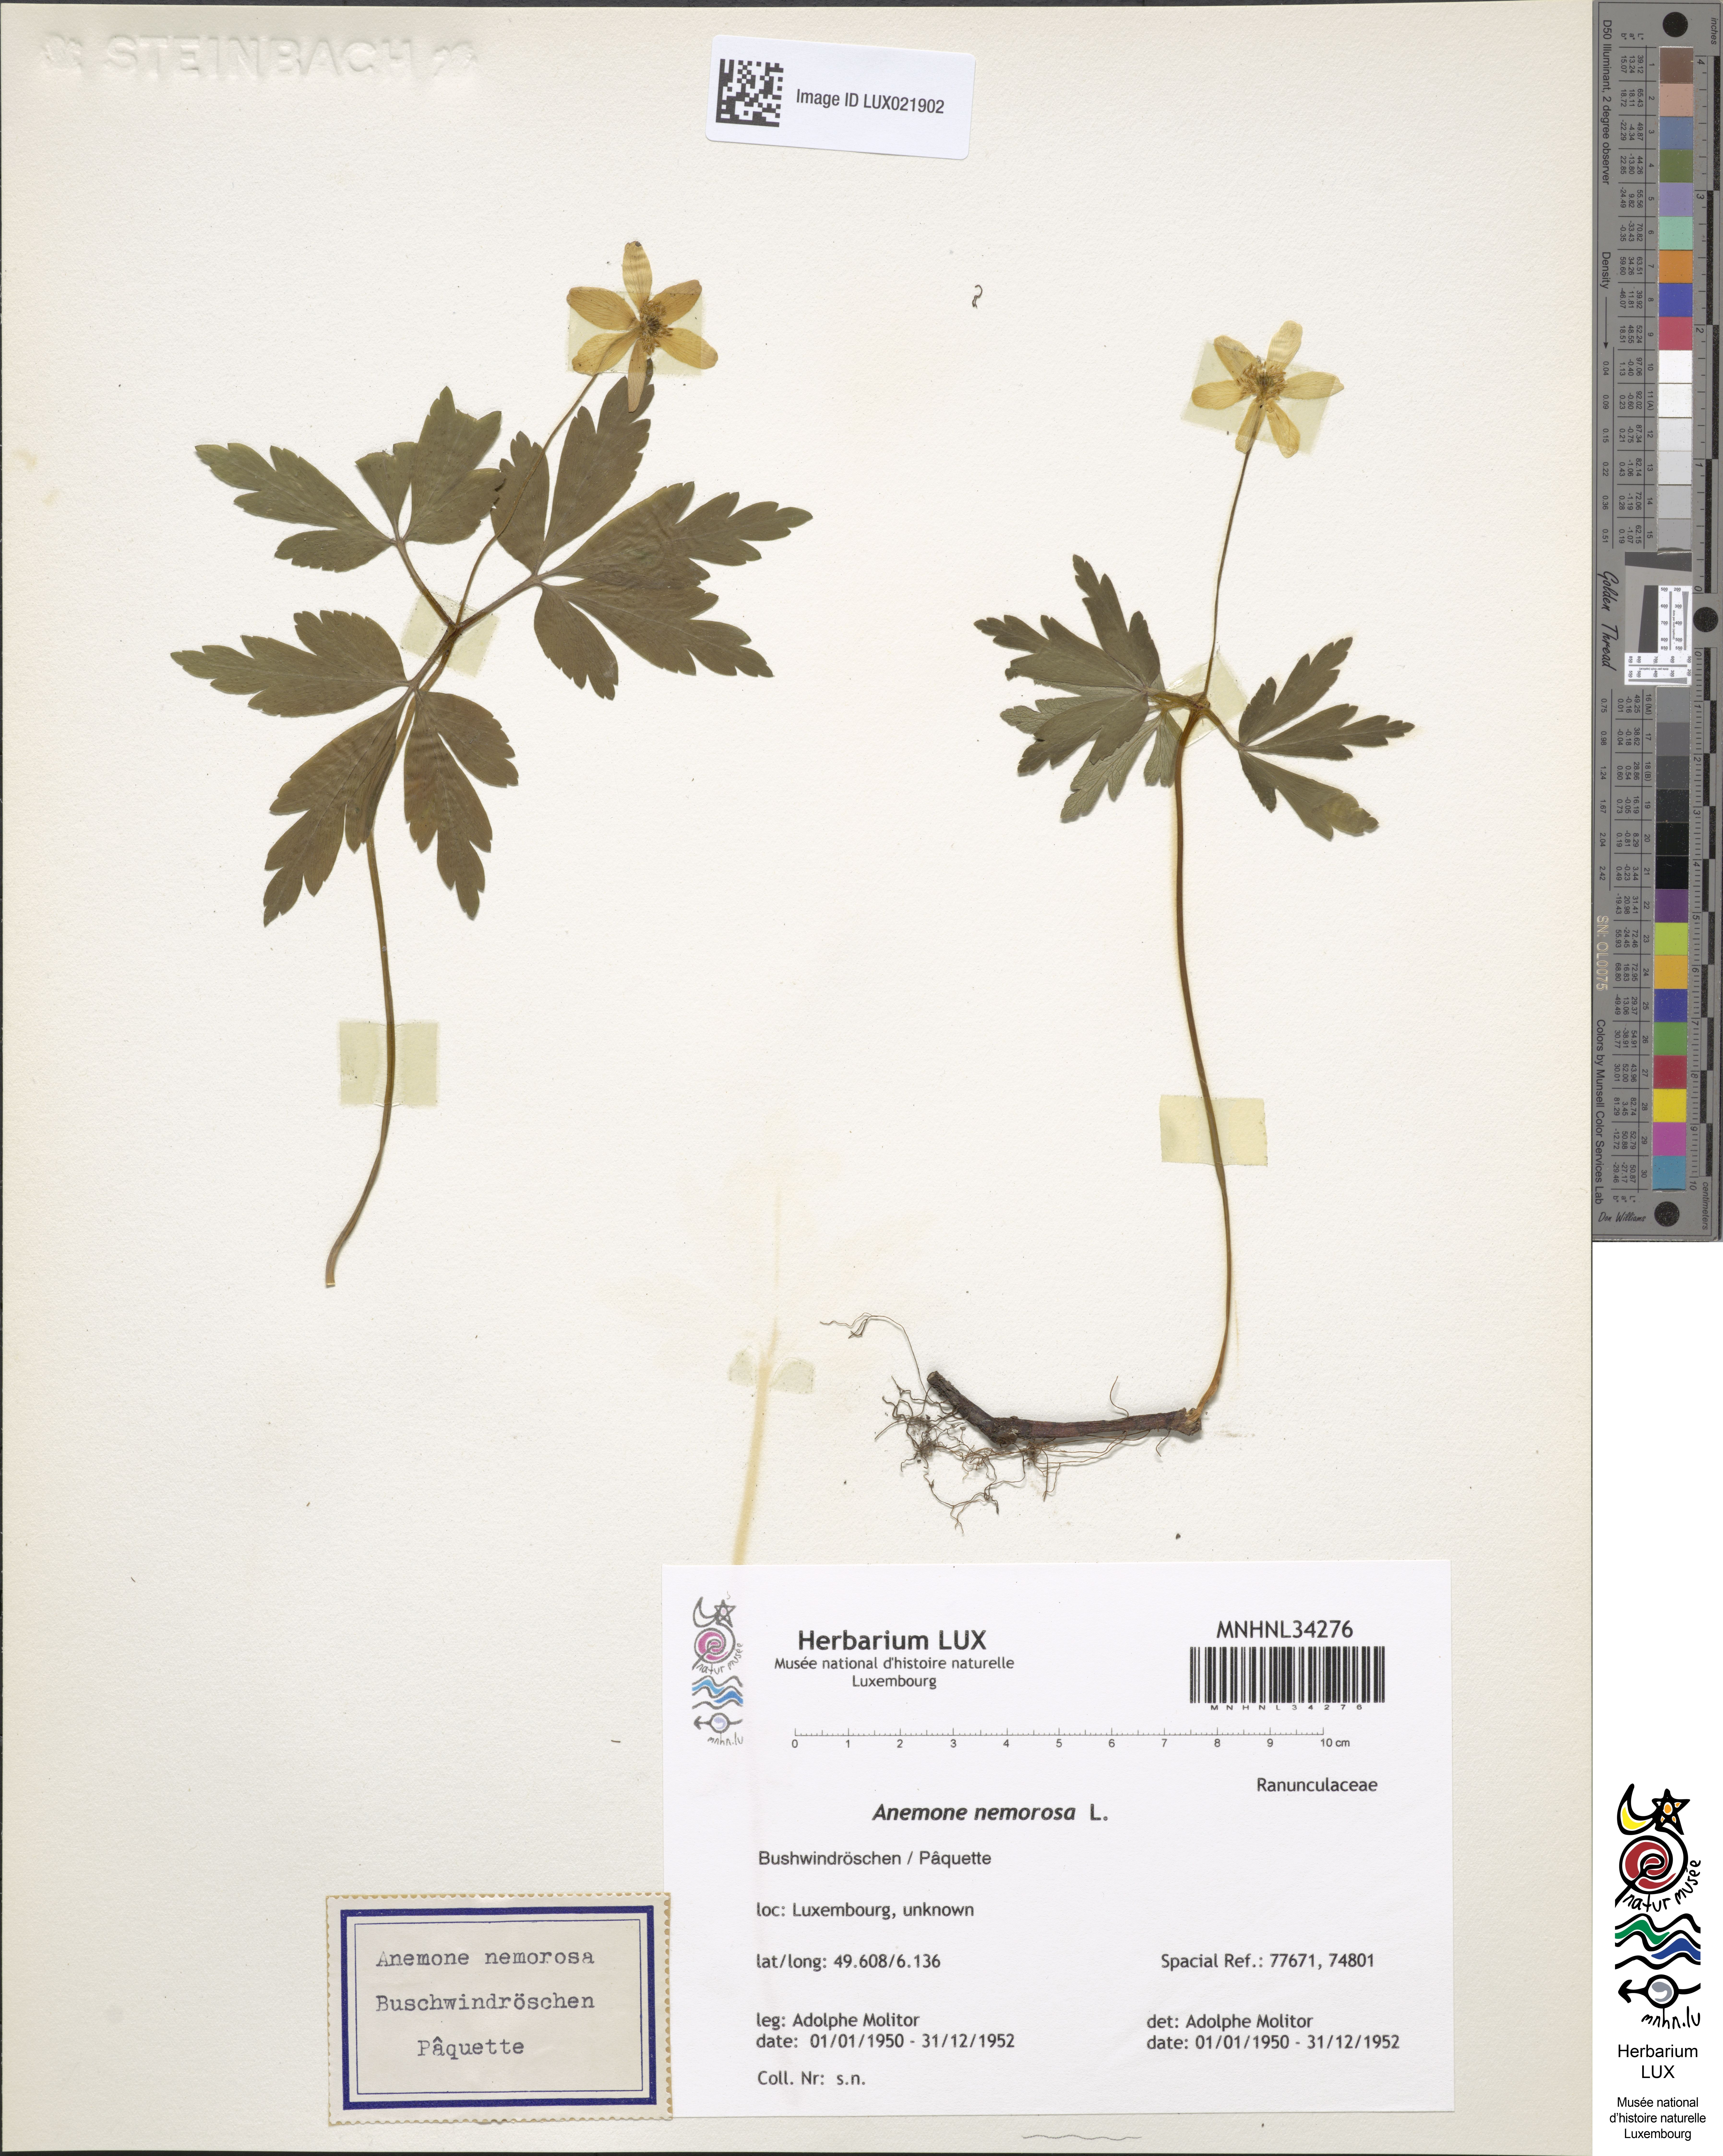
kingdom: Plantae
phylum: Tracheophyta
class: Magnoliopsida
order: Ranunculales
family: Ranunculaceae
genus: Anemone
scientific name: Anemone nemorosa
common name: Wood anemone
